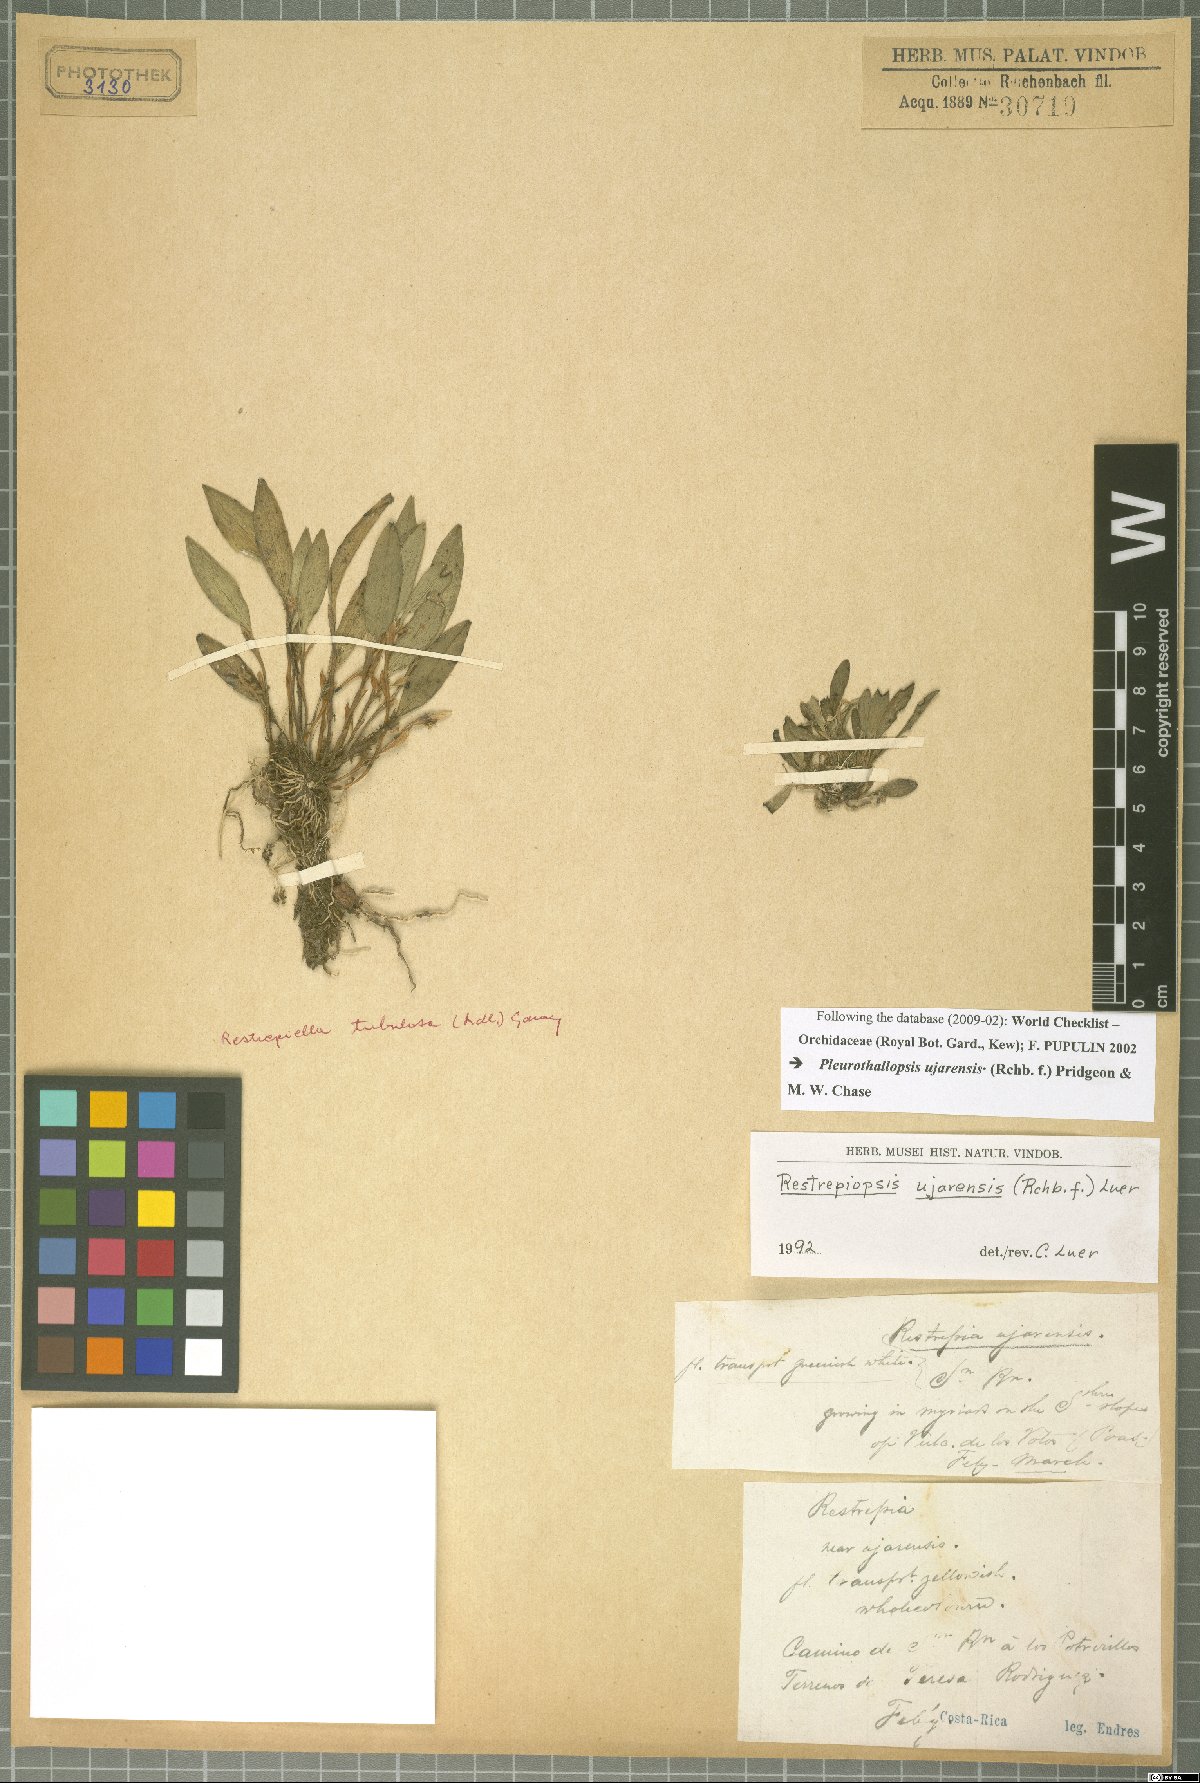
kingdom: Plantae
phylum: Tracheophyta
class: Liliopsida
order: Asparagales
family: Orchidaceae
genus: Pleurothallopsis
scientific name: Pleurothallopsis ujarensis
